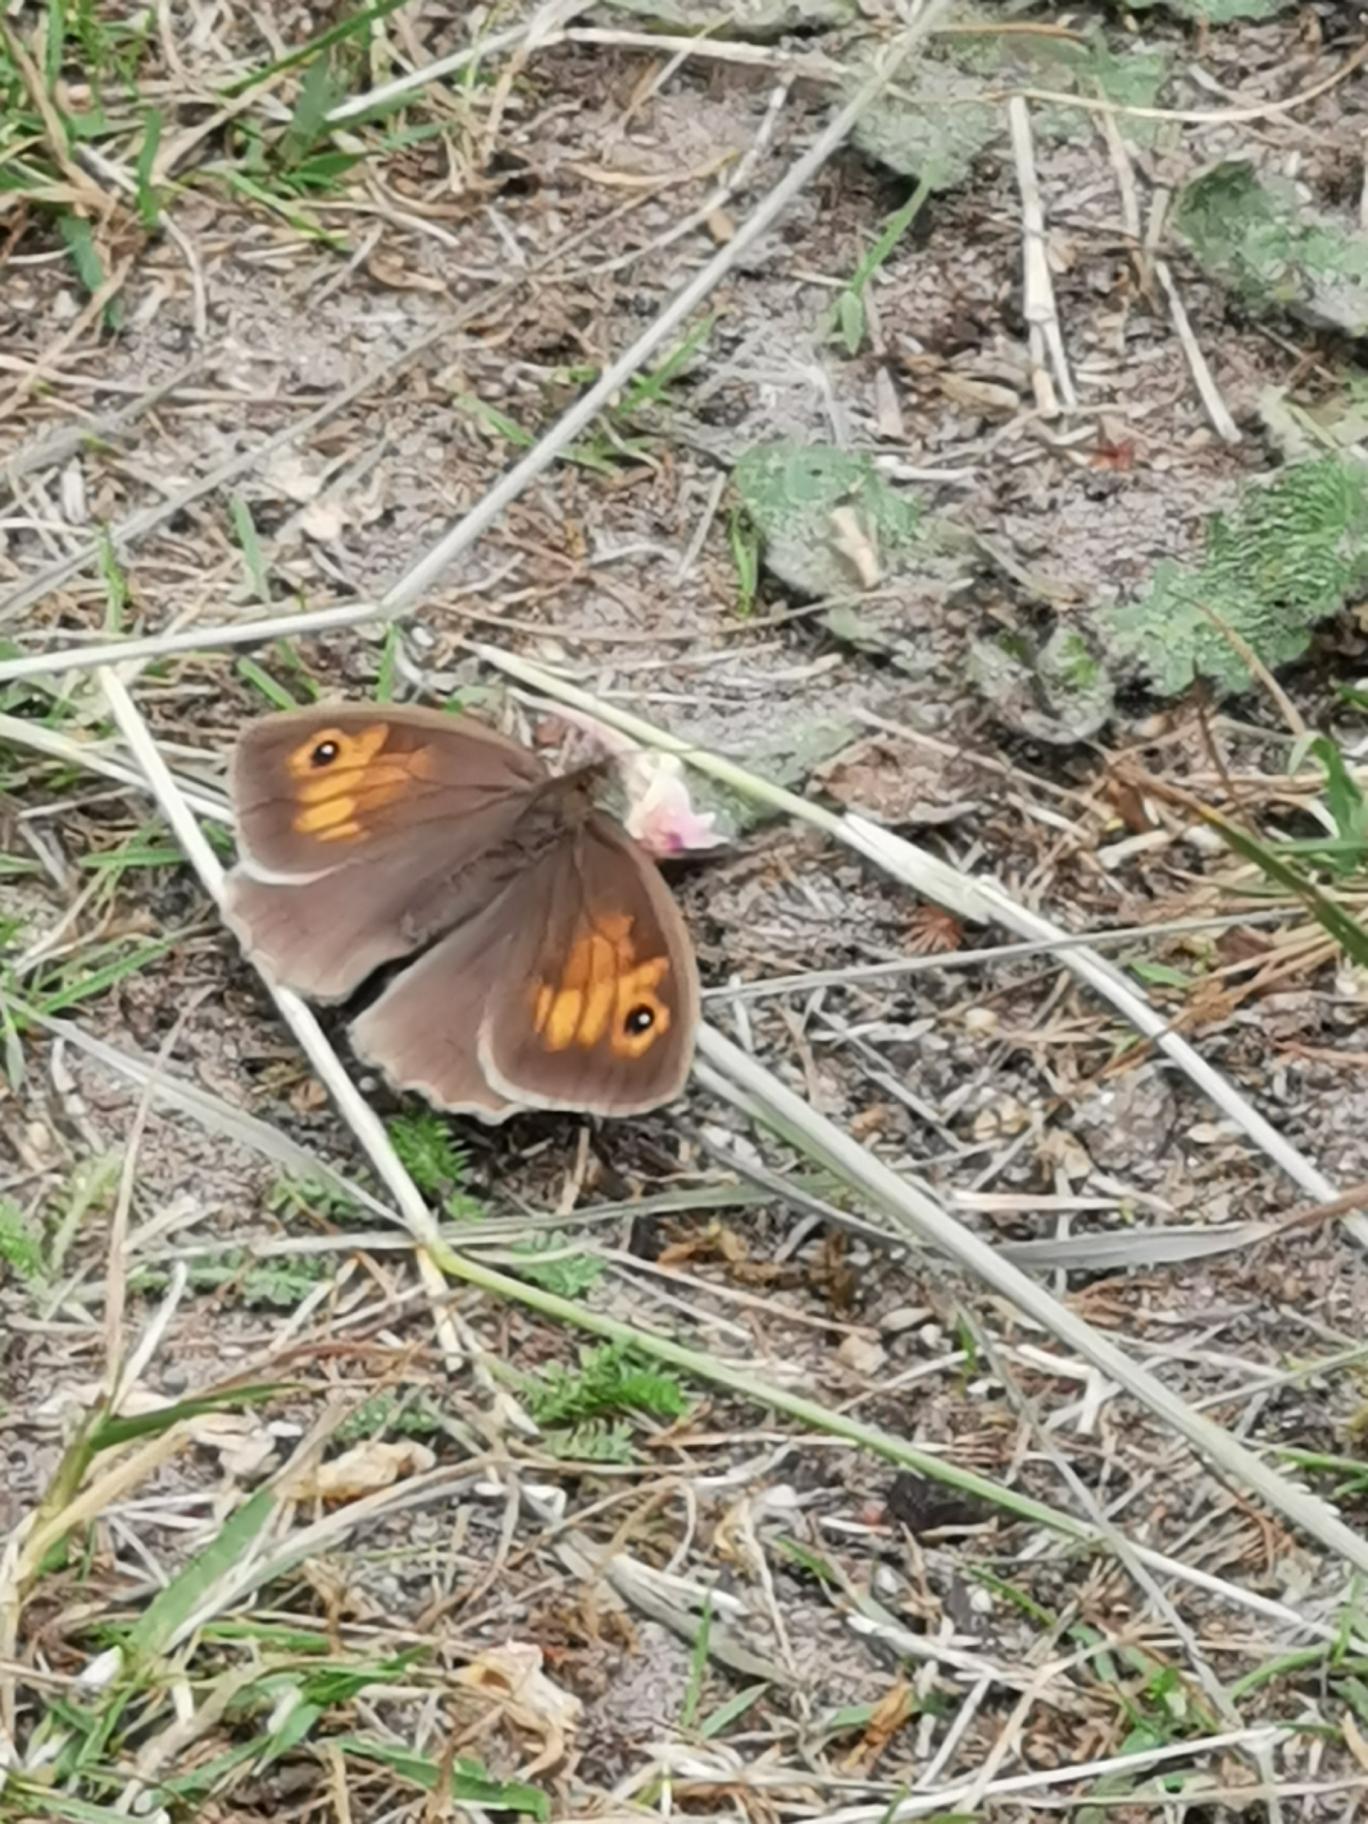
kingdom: Animalia
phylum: Arthropoda
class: Insecta
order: Lepidoptera
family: Nymphalidae
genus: Maniola
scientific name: Maniola jurtina
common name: Græsrandøje
